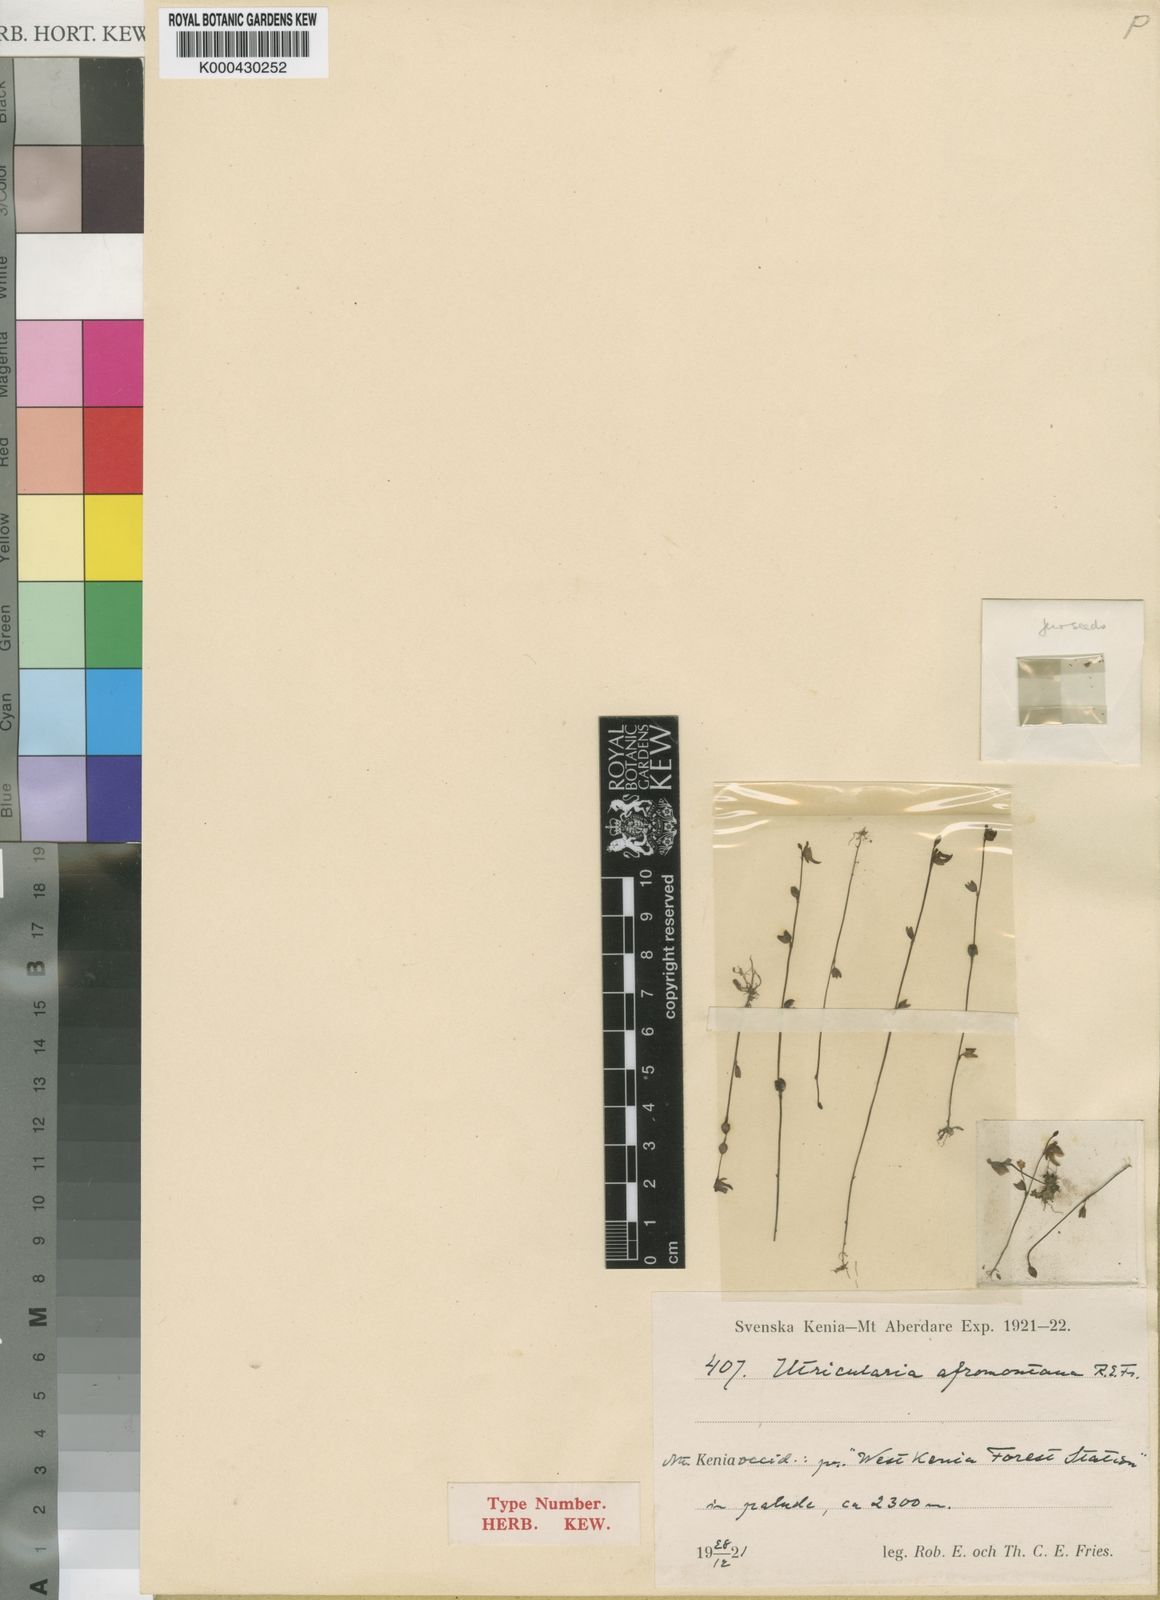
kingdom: Plantae
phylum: Tracheophyta
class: Magnoliopsida
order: Lamiales
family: Lentibulariaceae
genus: Utricularia
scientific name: Utricularia livida
